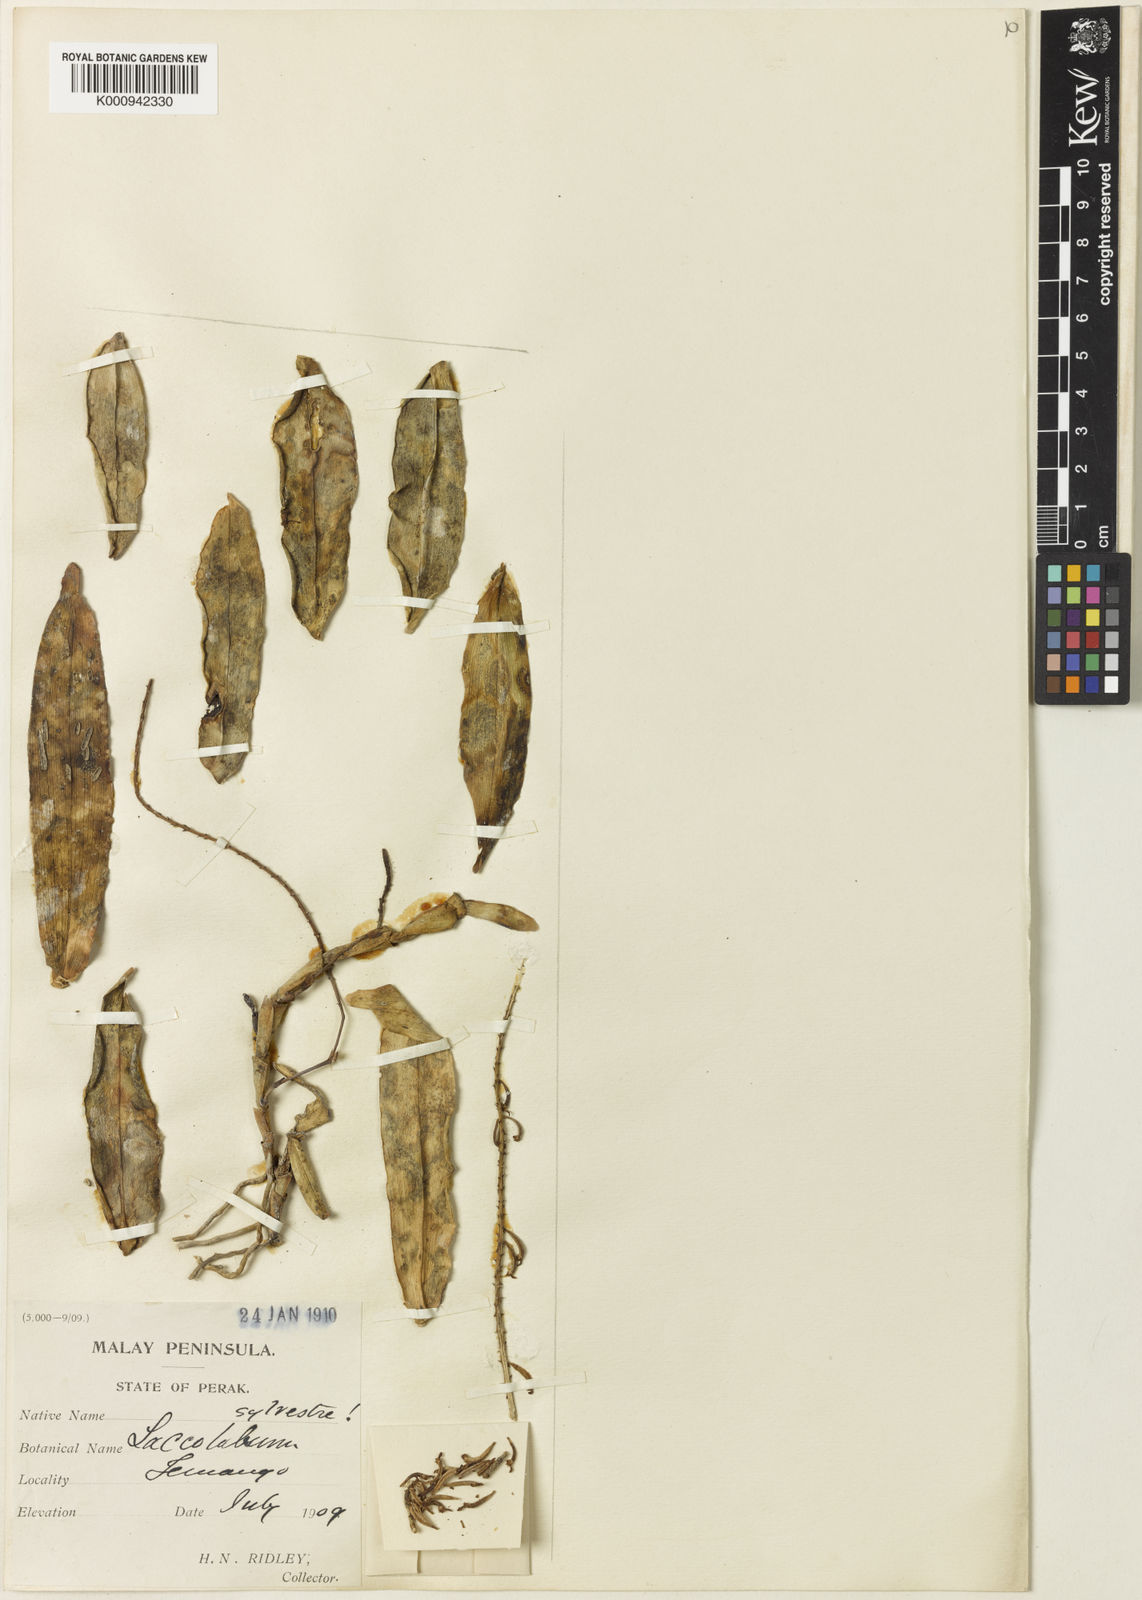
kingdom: Plantae
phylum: Tracheophyta
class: Liliopsida
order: Asparagales
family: Orchidaceae
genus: Robiquetia
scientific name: Robiquetia sylvestris
